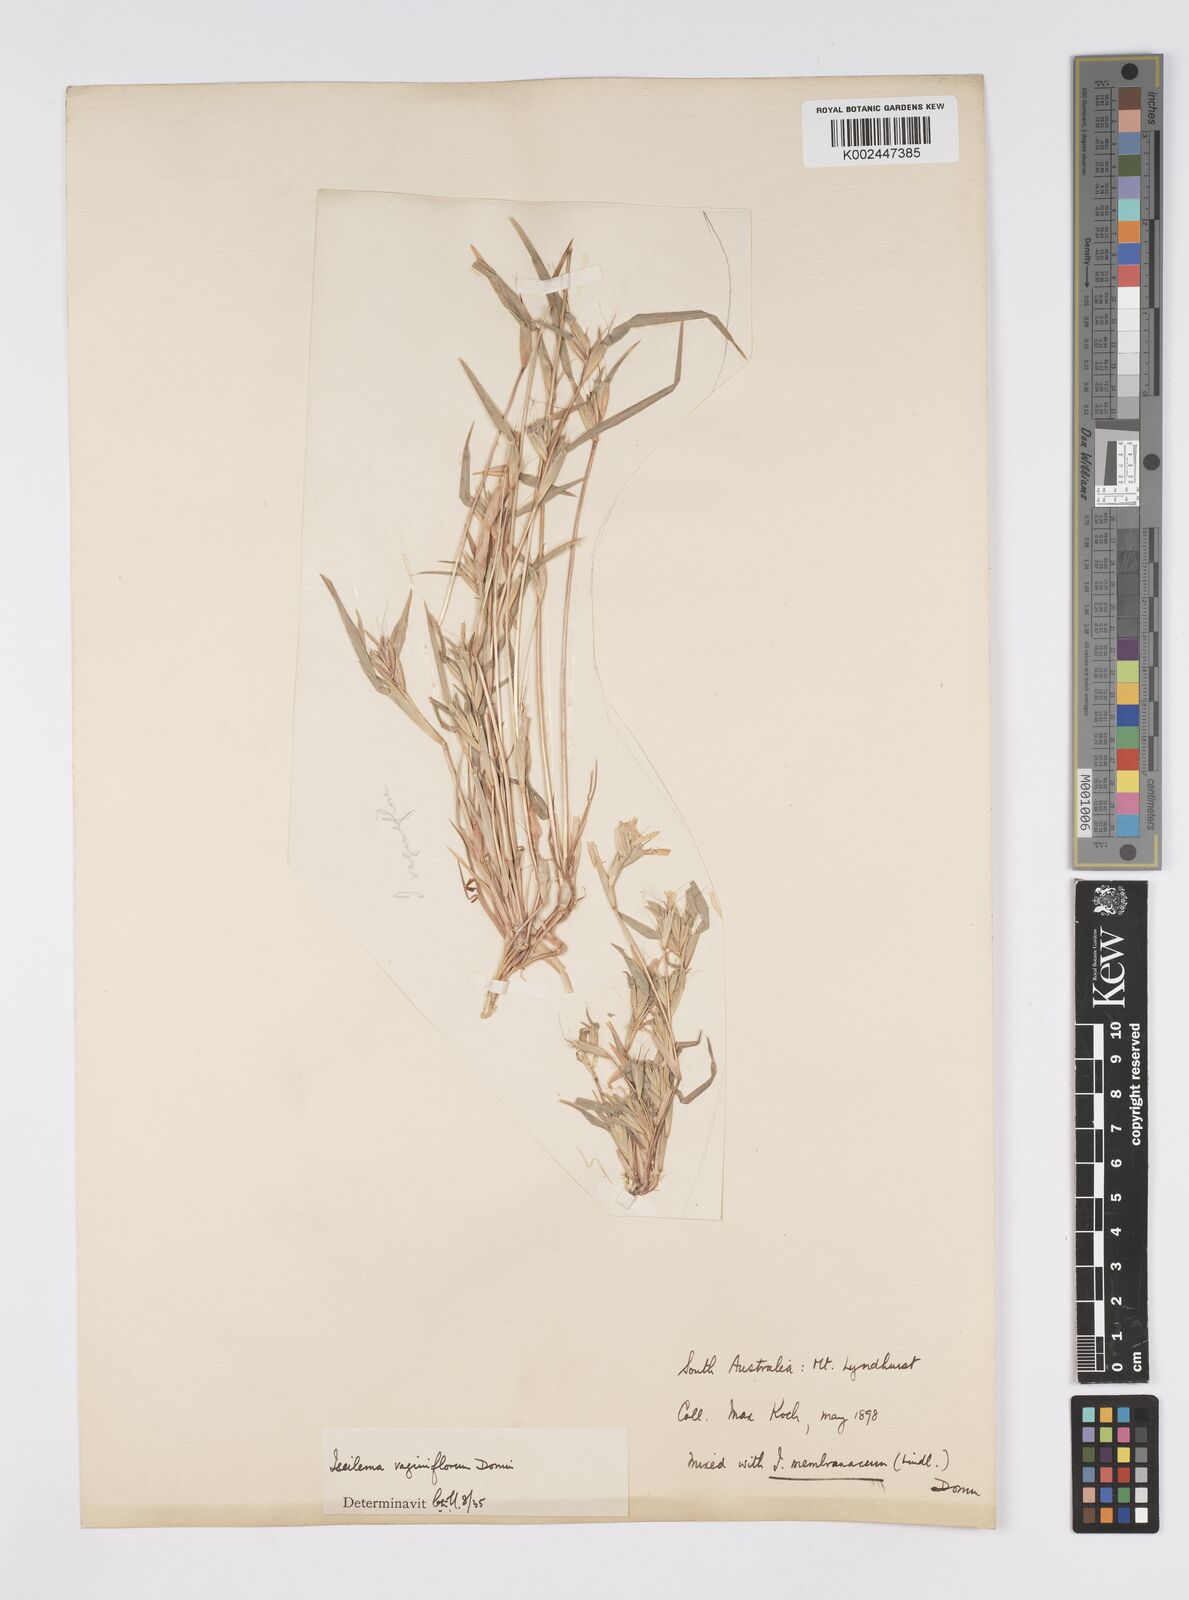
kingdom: Plantae
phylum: Tracheophyta
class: Liliopsida
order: Poales
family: Poaceae
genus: Iseilema
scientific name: Iseilema vaginiflorum
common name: Red flinders grass
